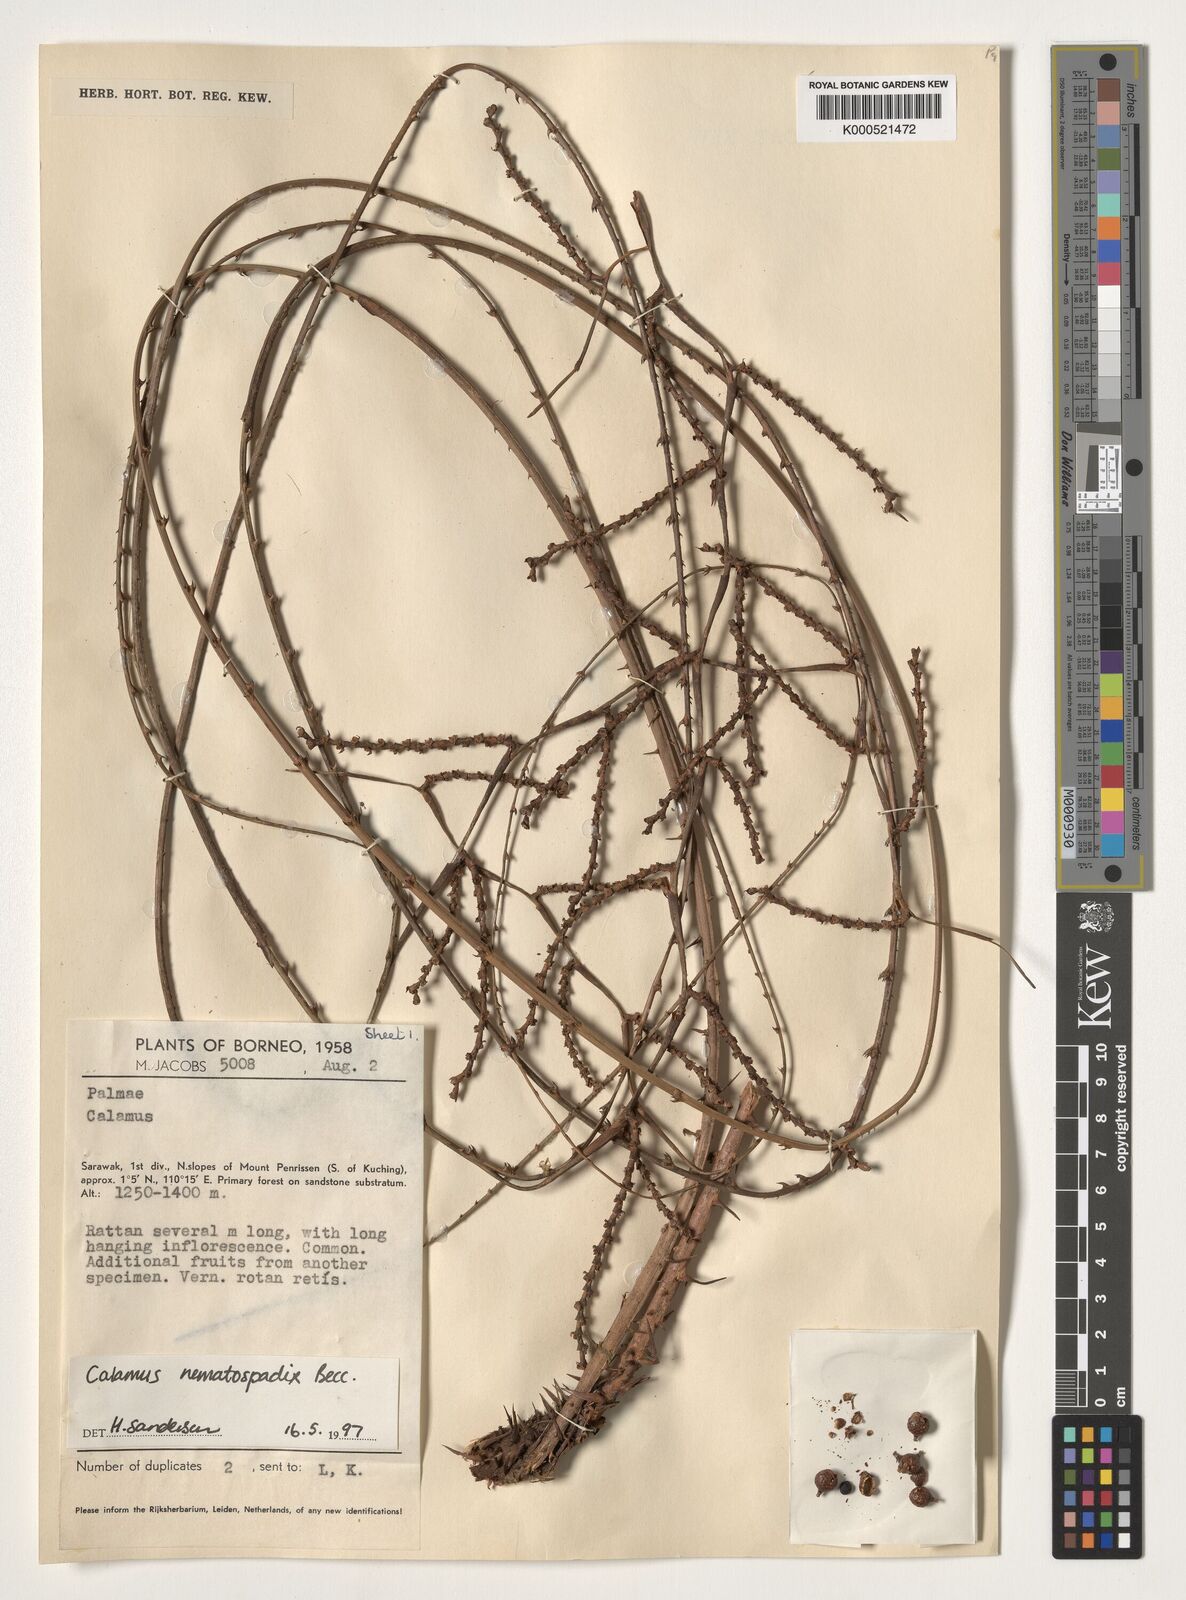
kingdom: Plantae
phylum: Tracheophyta
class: Liliopsida
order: Arecales
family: Arecaceae
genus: Calamus
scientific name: Calamus nematospadix
